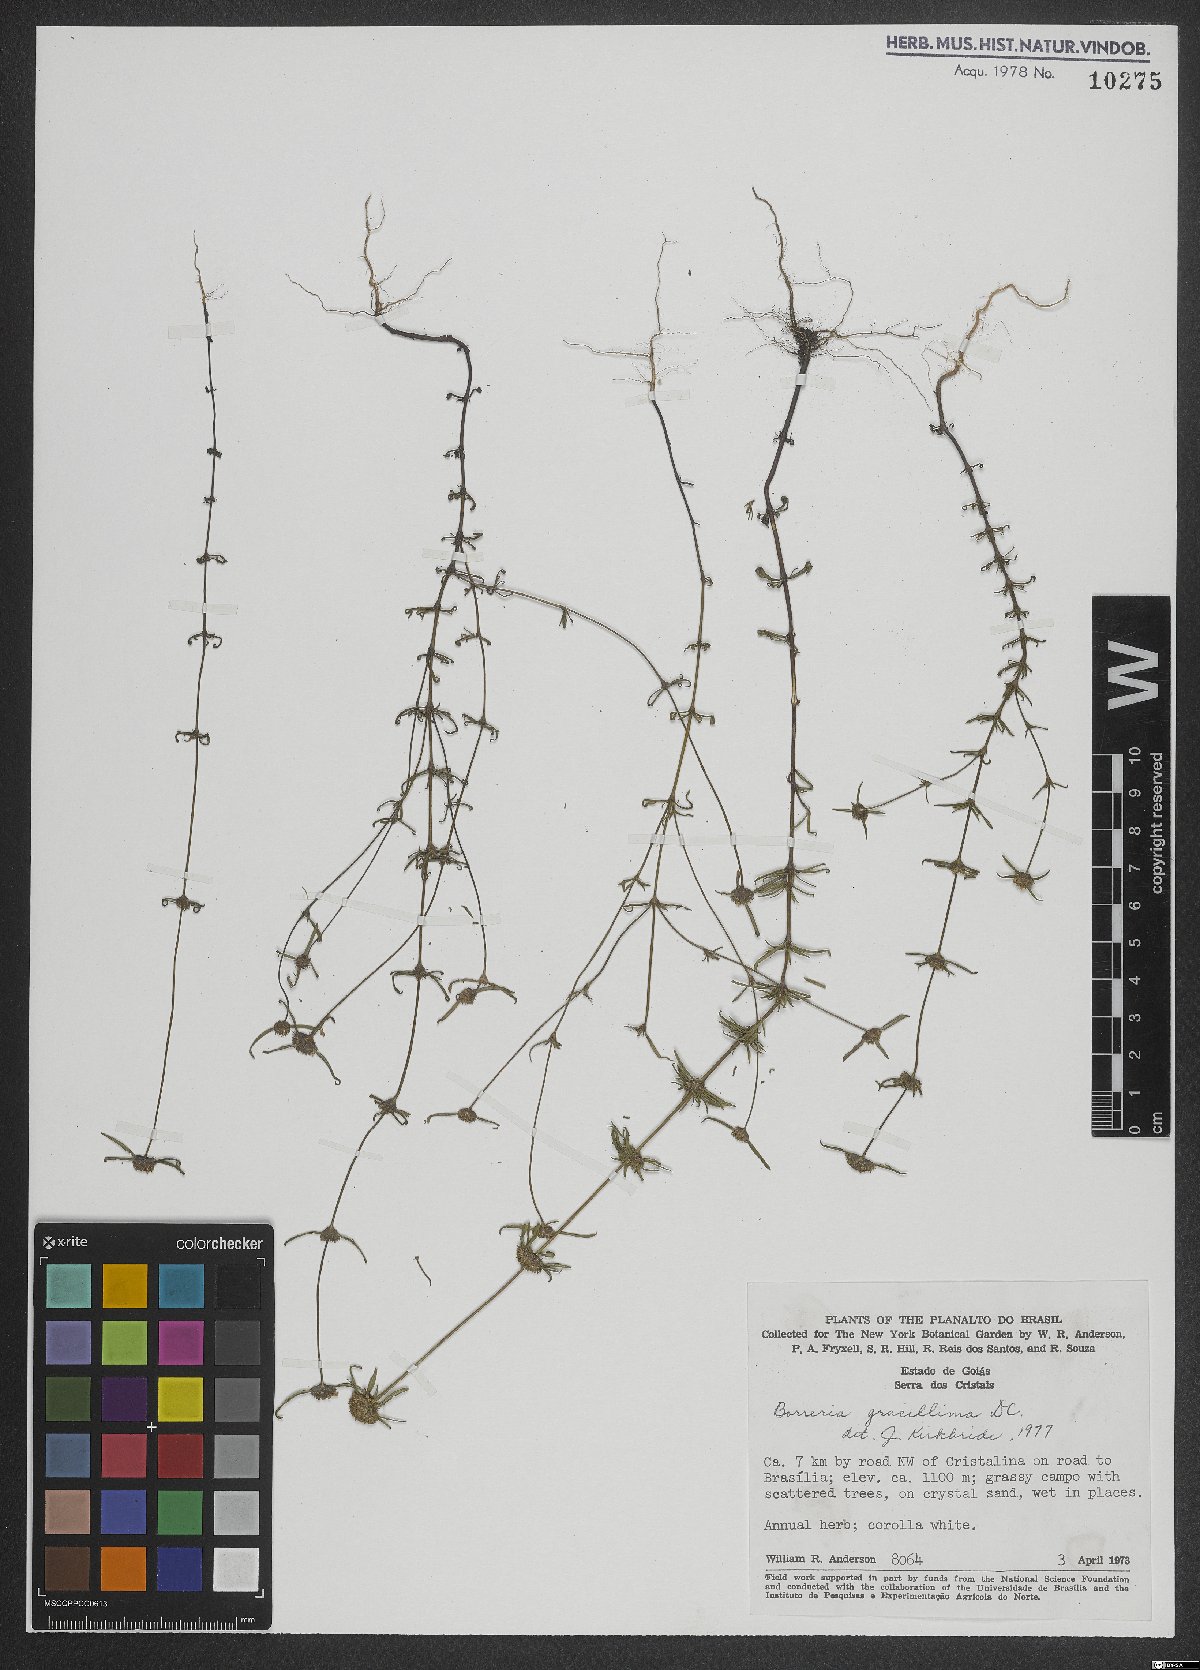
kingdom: Plantae
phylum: Tracheophyta
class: Magnoliopsida
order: Gentianales
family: Rubiaceae
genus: Spermacoce
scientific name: Spermacoce gracillima
